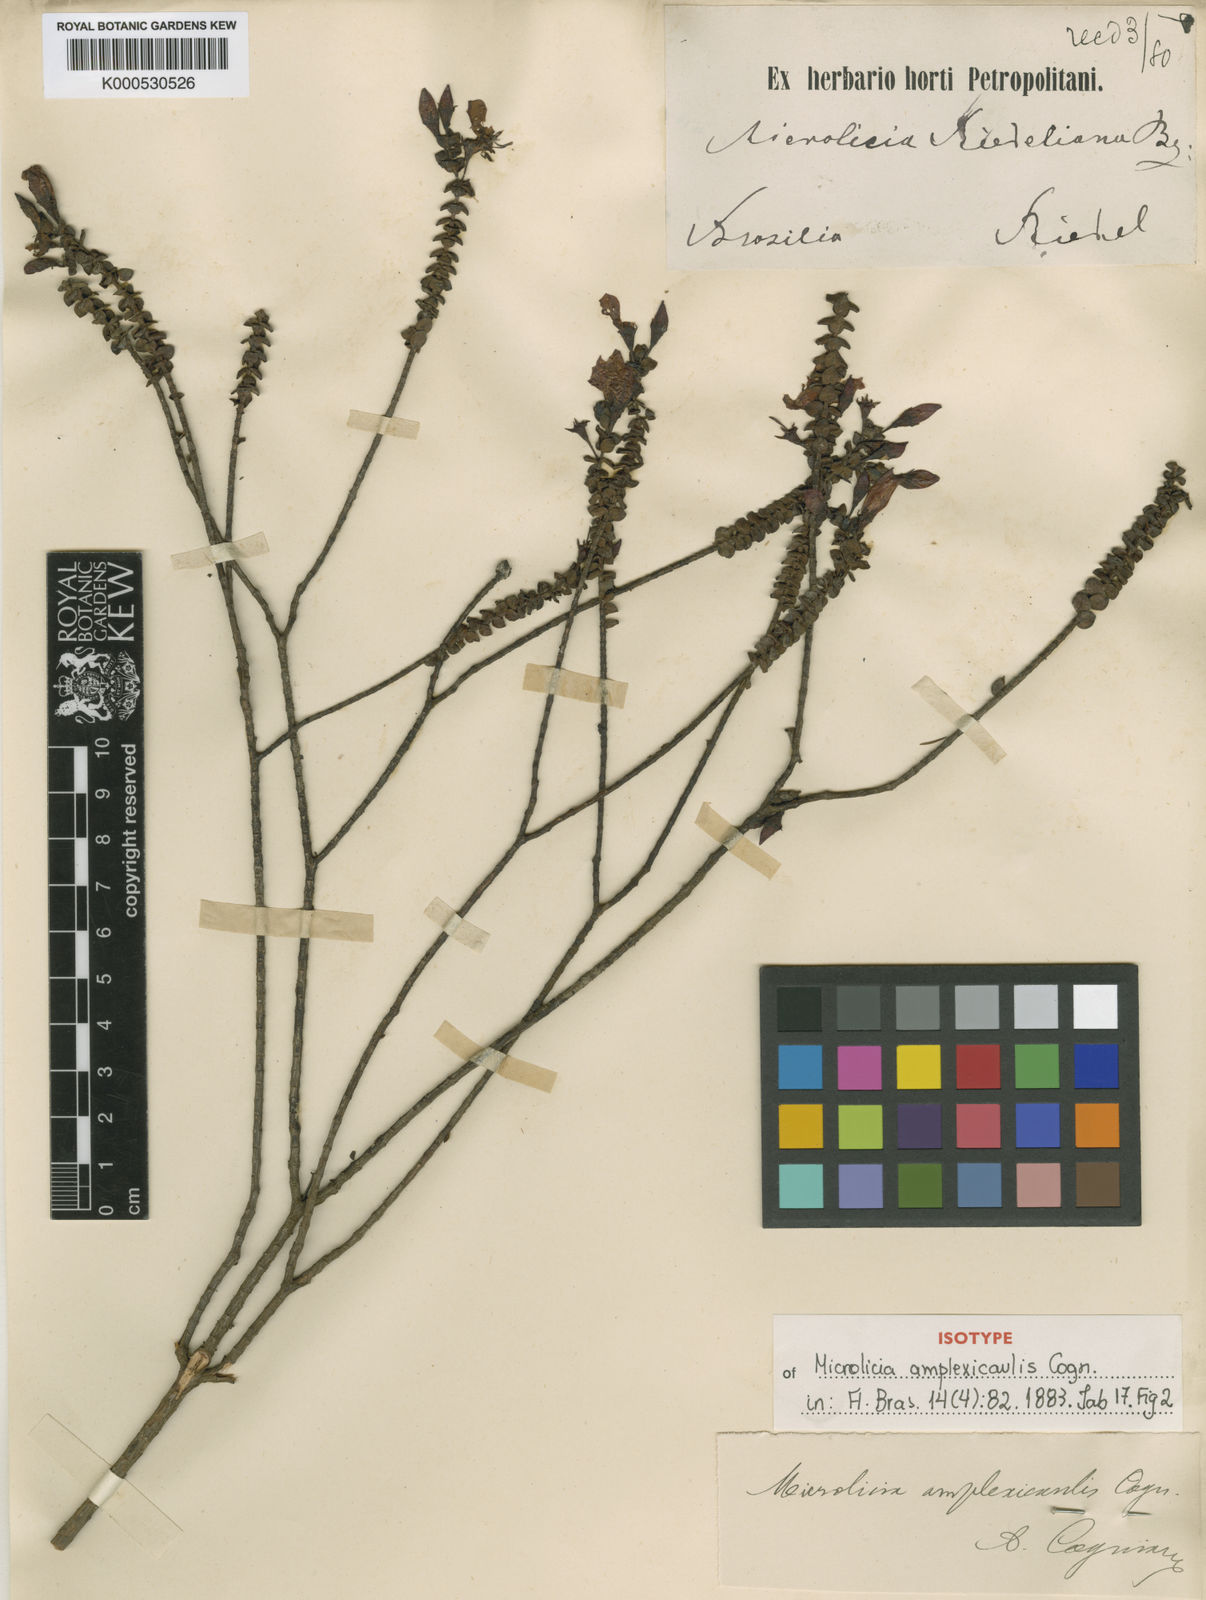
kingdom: Plantae
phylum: Tracheophyta
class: Magnoliopsida
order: Myrtales
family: Melastomataceae
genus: Microlicia
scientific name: Microlicia amplexicaulis
